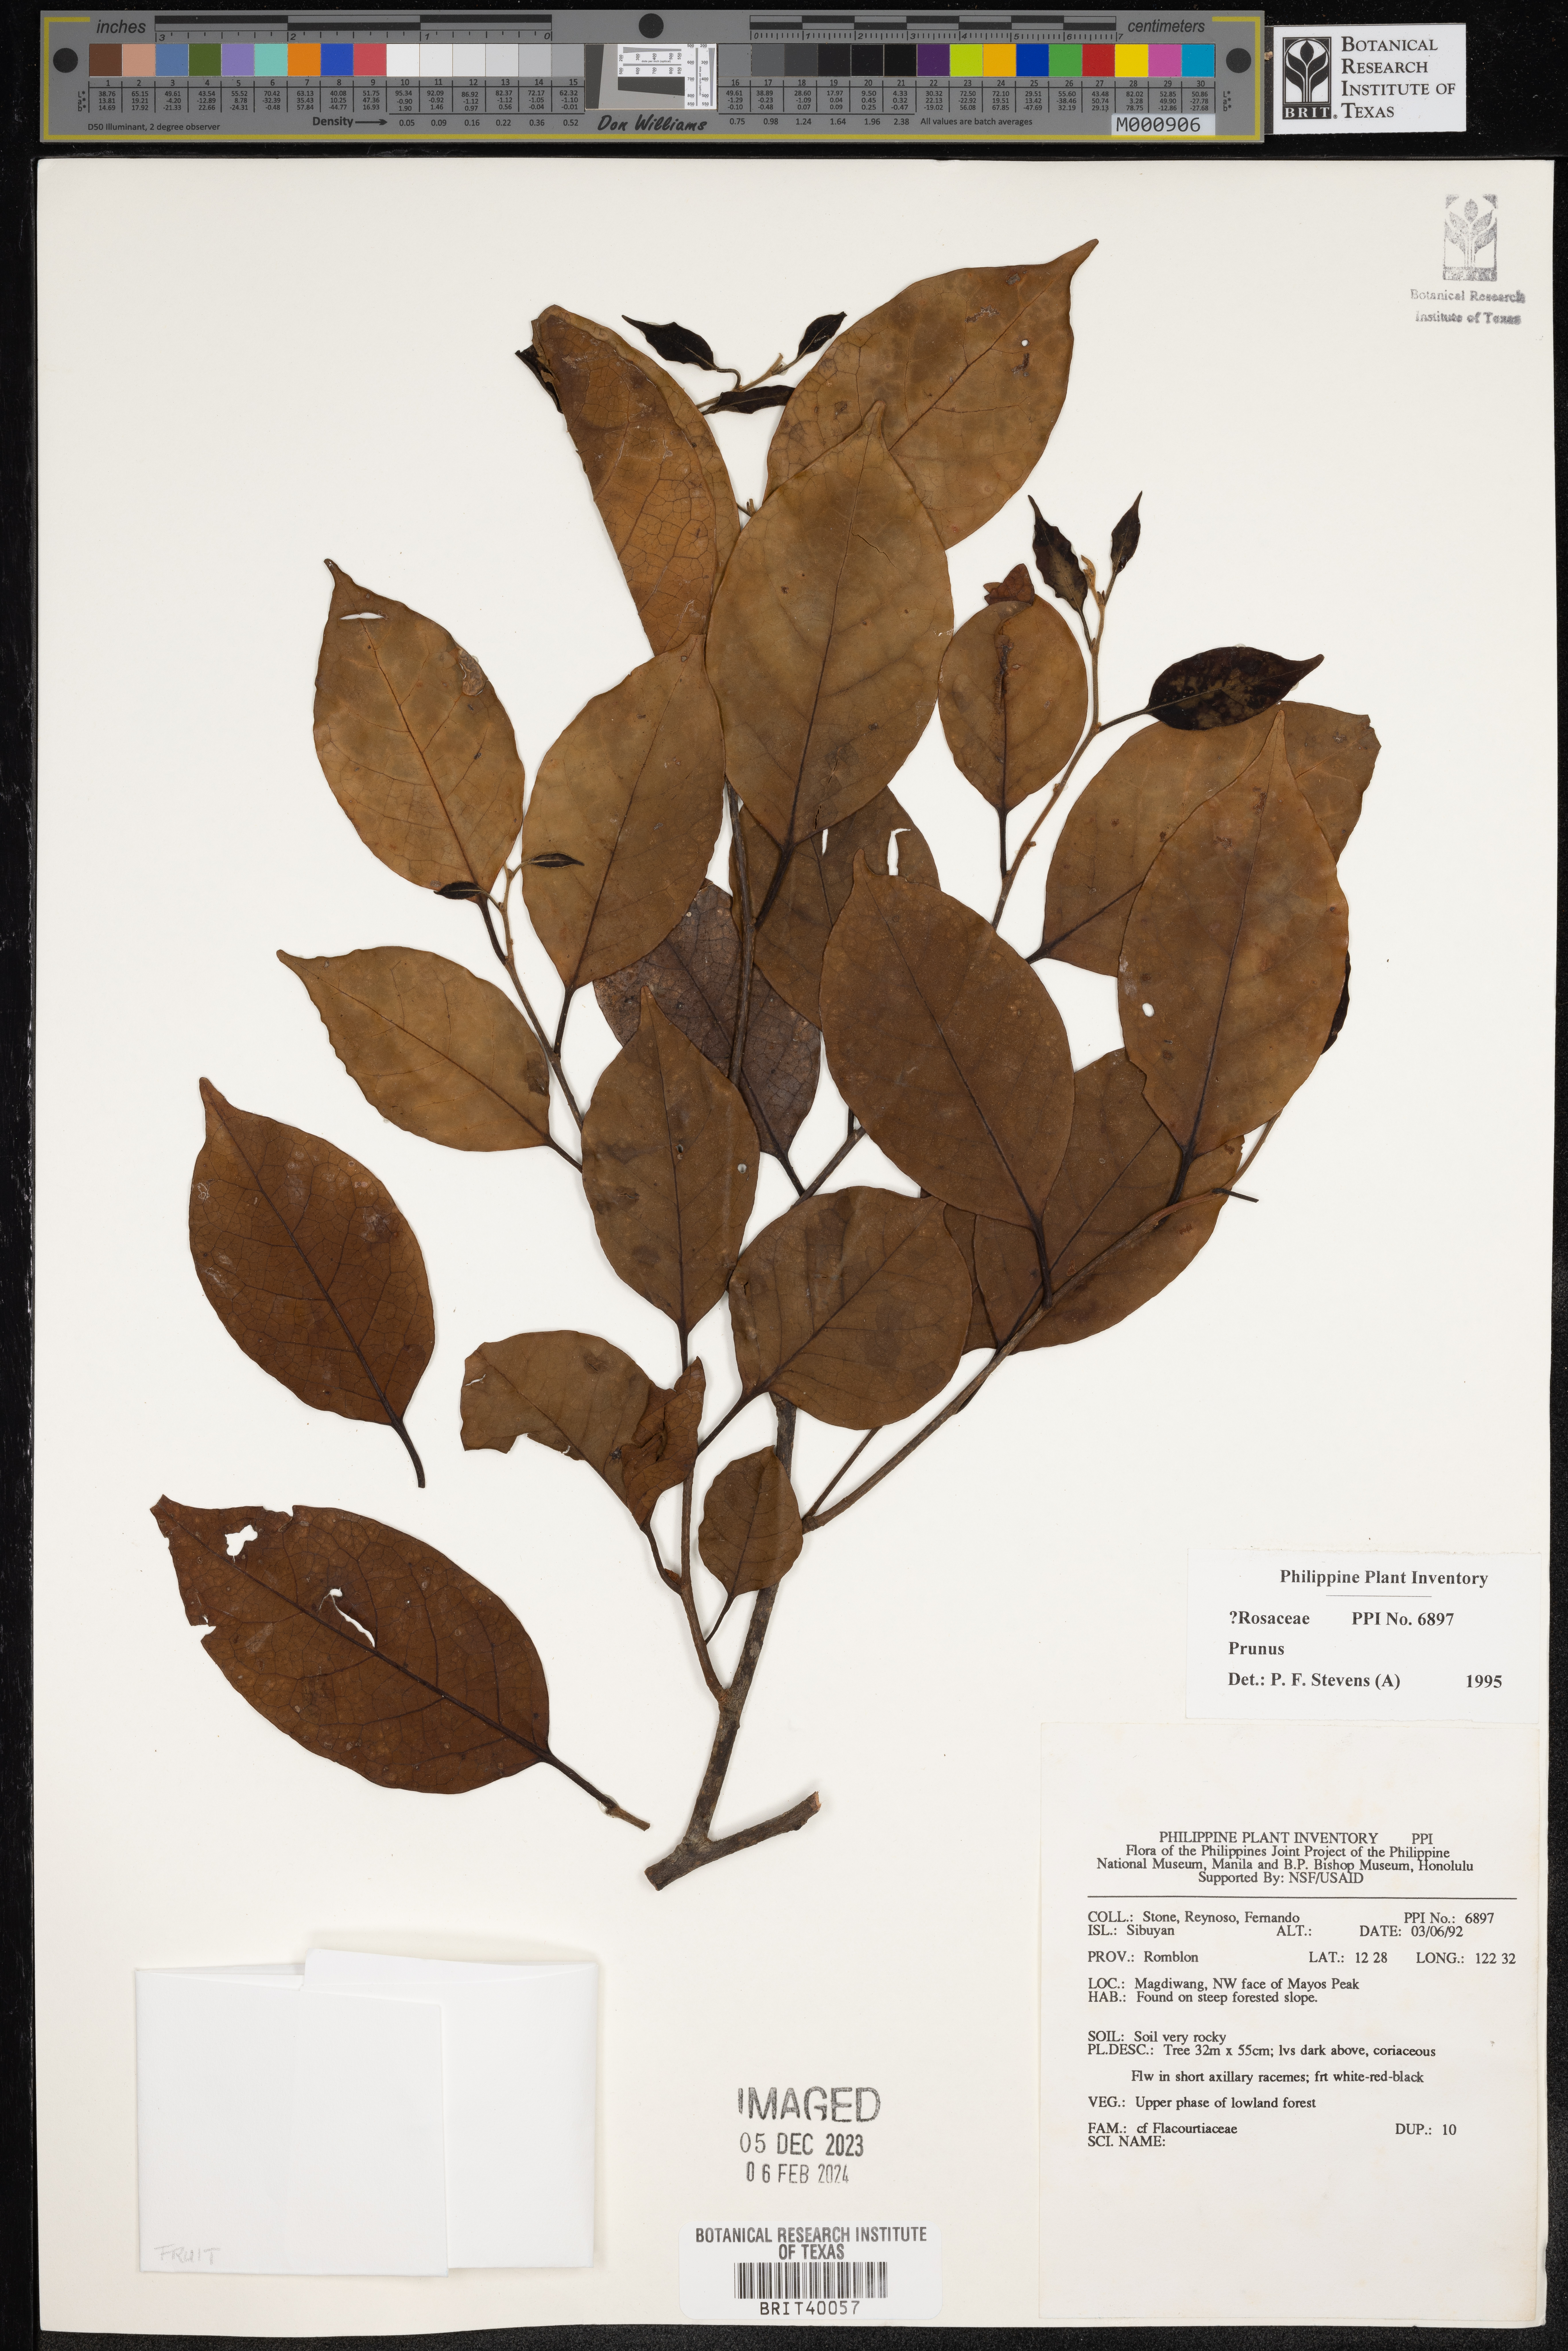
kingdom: Plantae
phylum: Tracheophyta
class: Magnoliopsida
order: Rosales
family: Rosaceae
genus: Prunus
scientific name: Prunus
